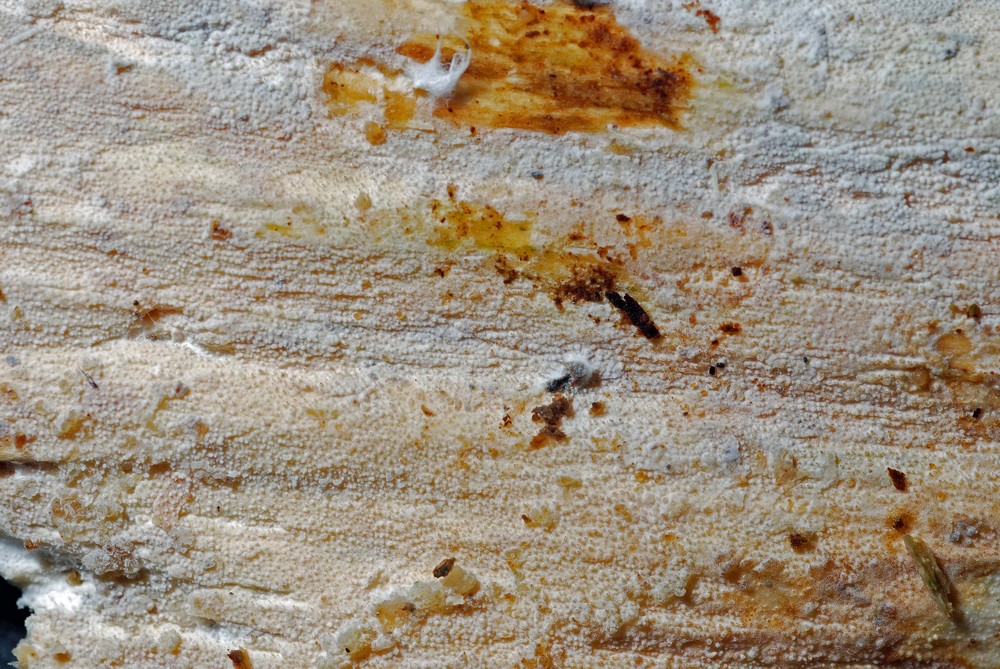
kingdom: Fungi
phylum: Basidiomycota
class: Agaricomycetes
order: Hymenochaetales
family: Rickenellaceae
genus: Resinicium
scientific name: Resinicium bicolor
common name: almindelig vokstand
